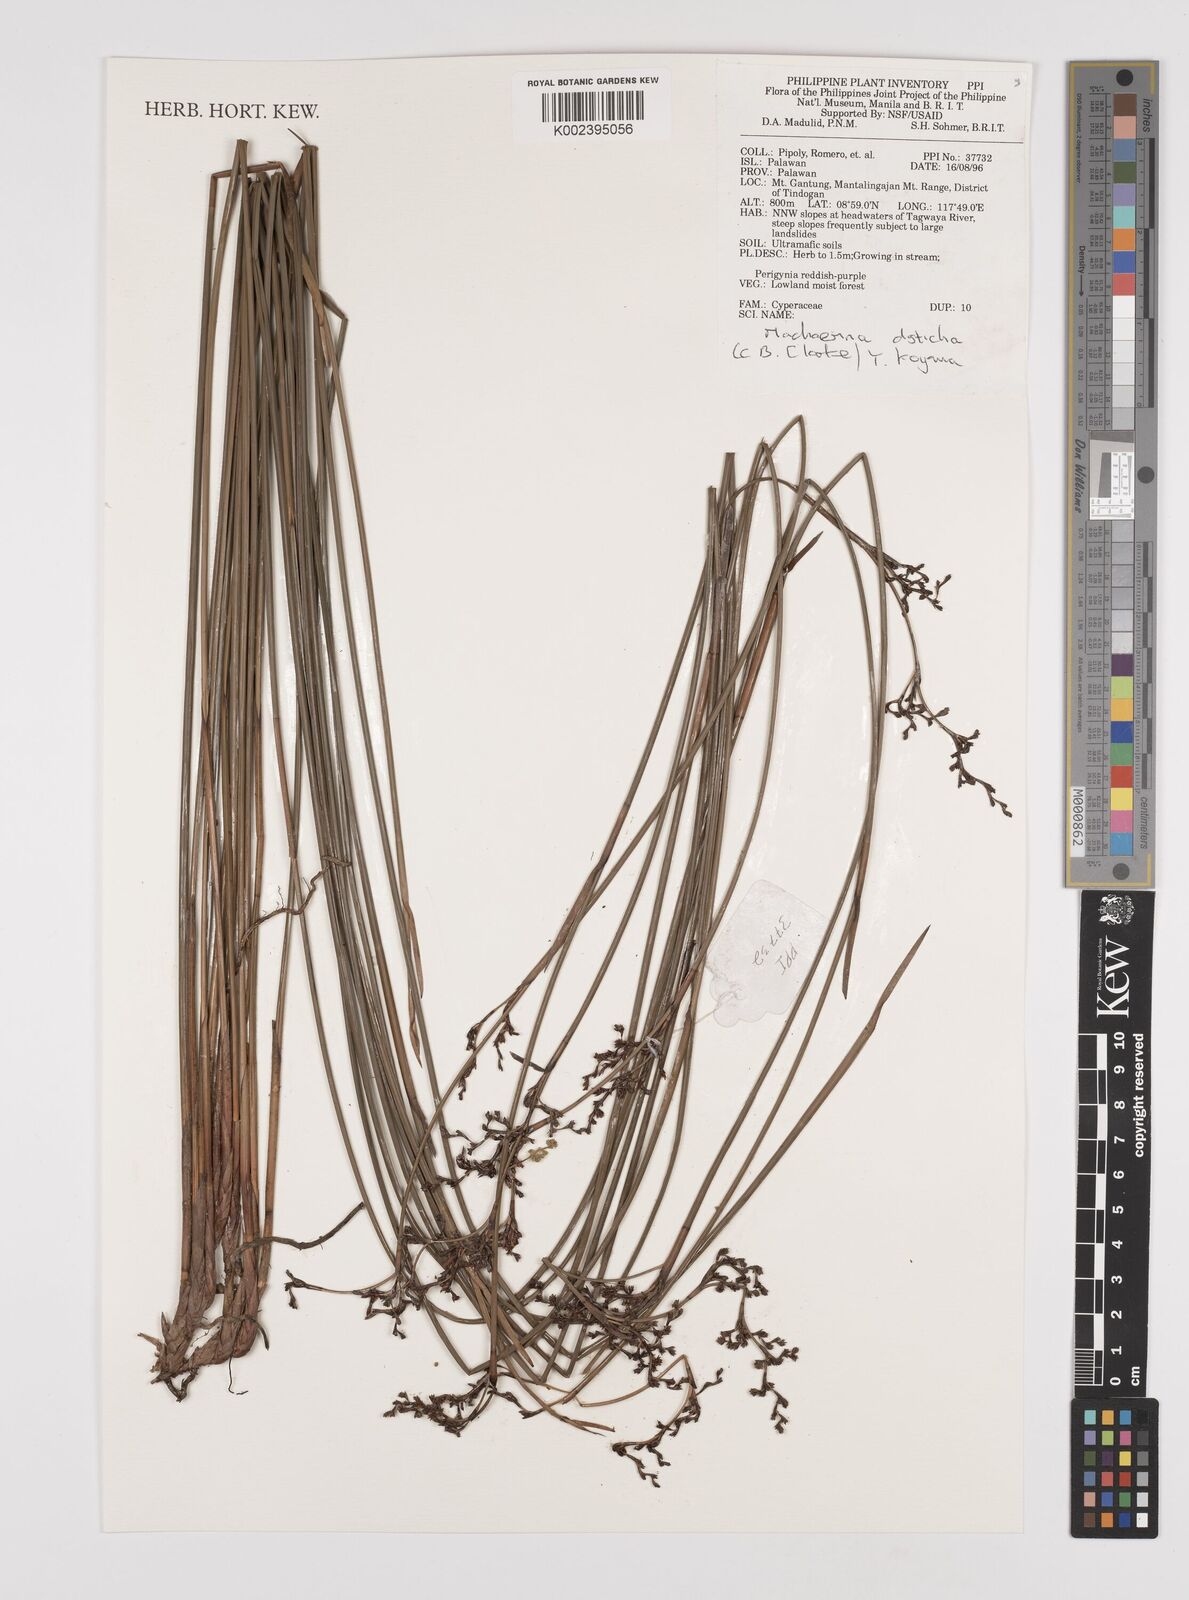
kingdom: Plantae
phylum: Tracheophyta
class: Liliopsida
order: Poales
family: Cyperaceae
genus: Machaerina
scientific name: Machaerina disticha
